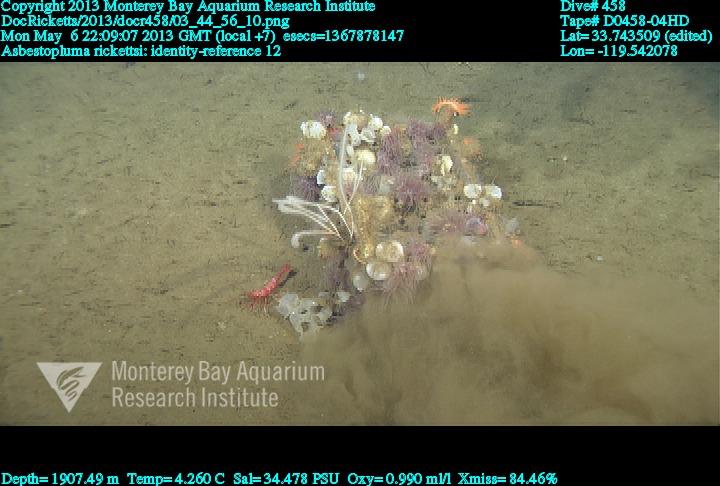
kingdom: Animalia
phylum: Porifera
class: Demospongiae
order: Poecilosclerida
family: Cladorhizidae
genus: Asbestopluma
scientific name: Asbestopluma rickettsi
